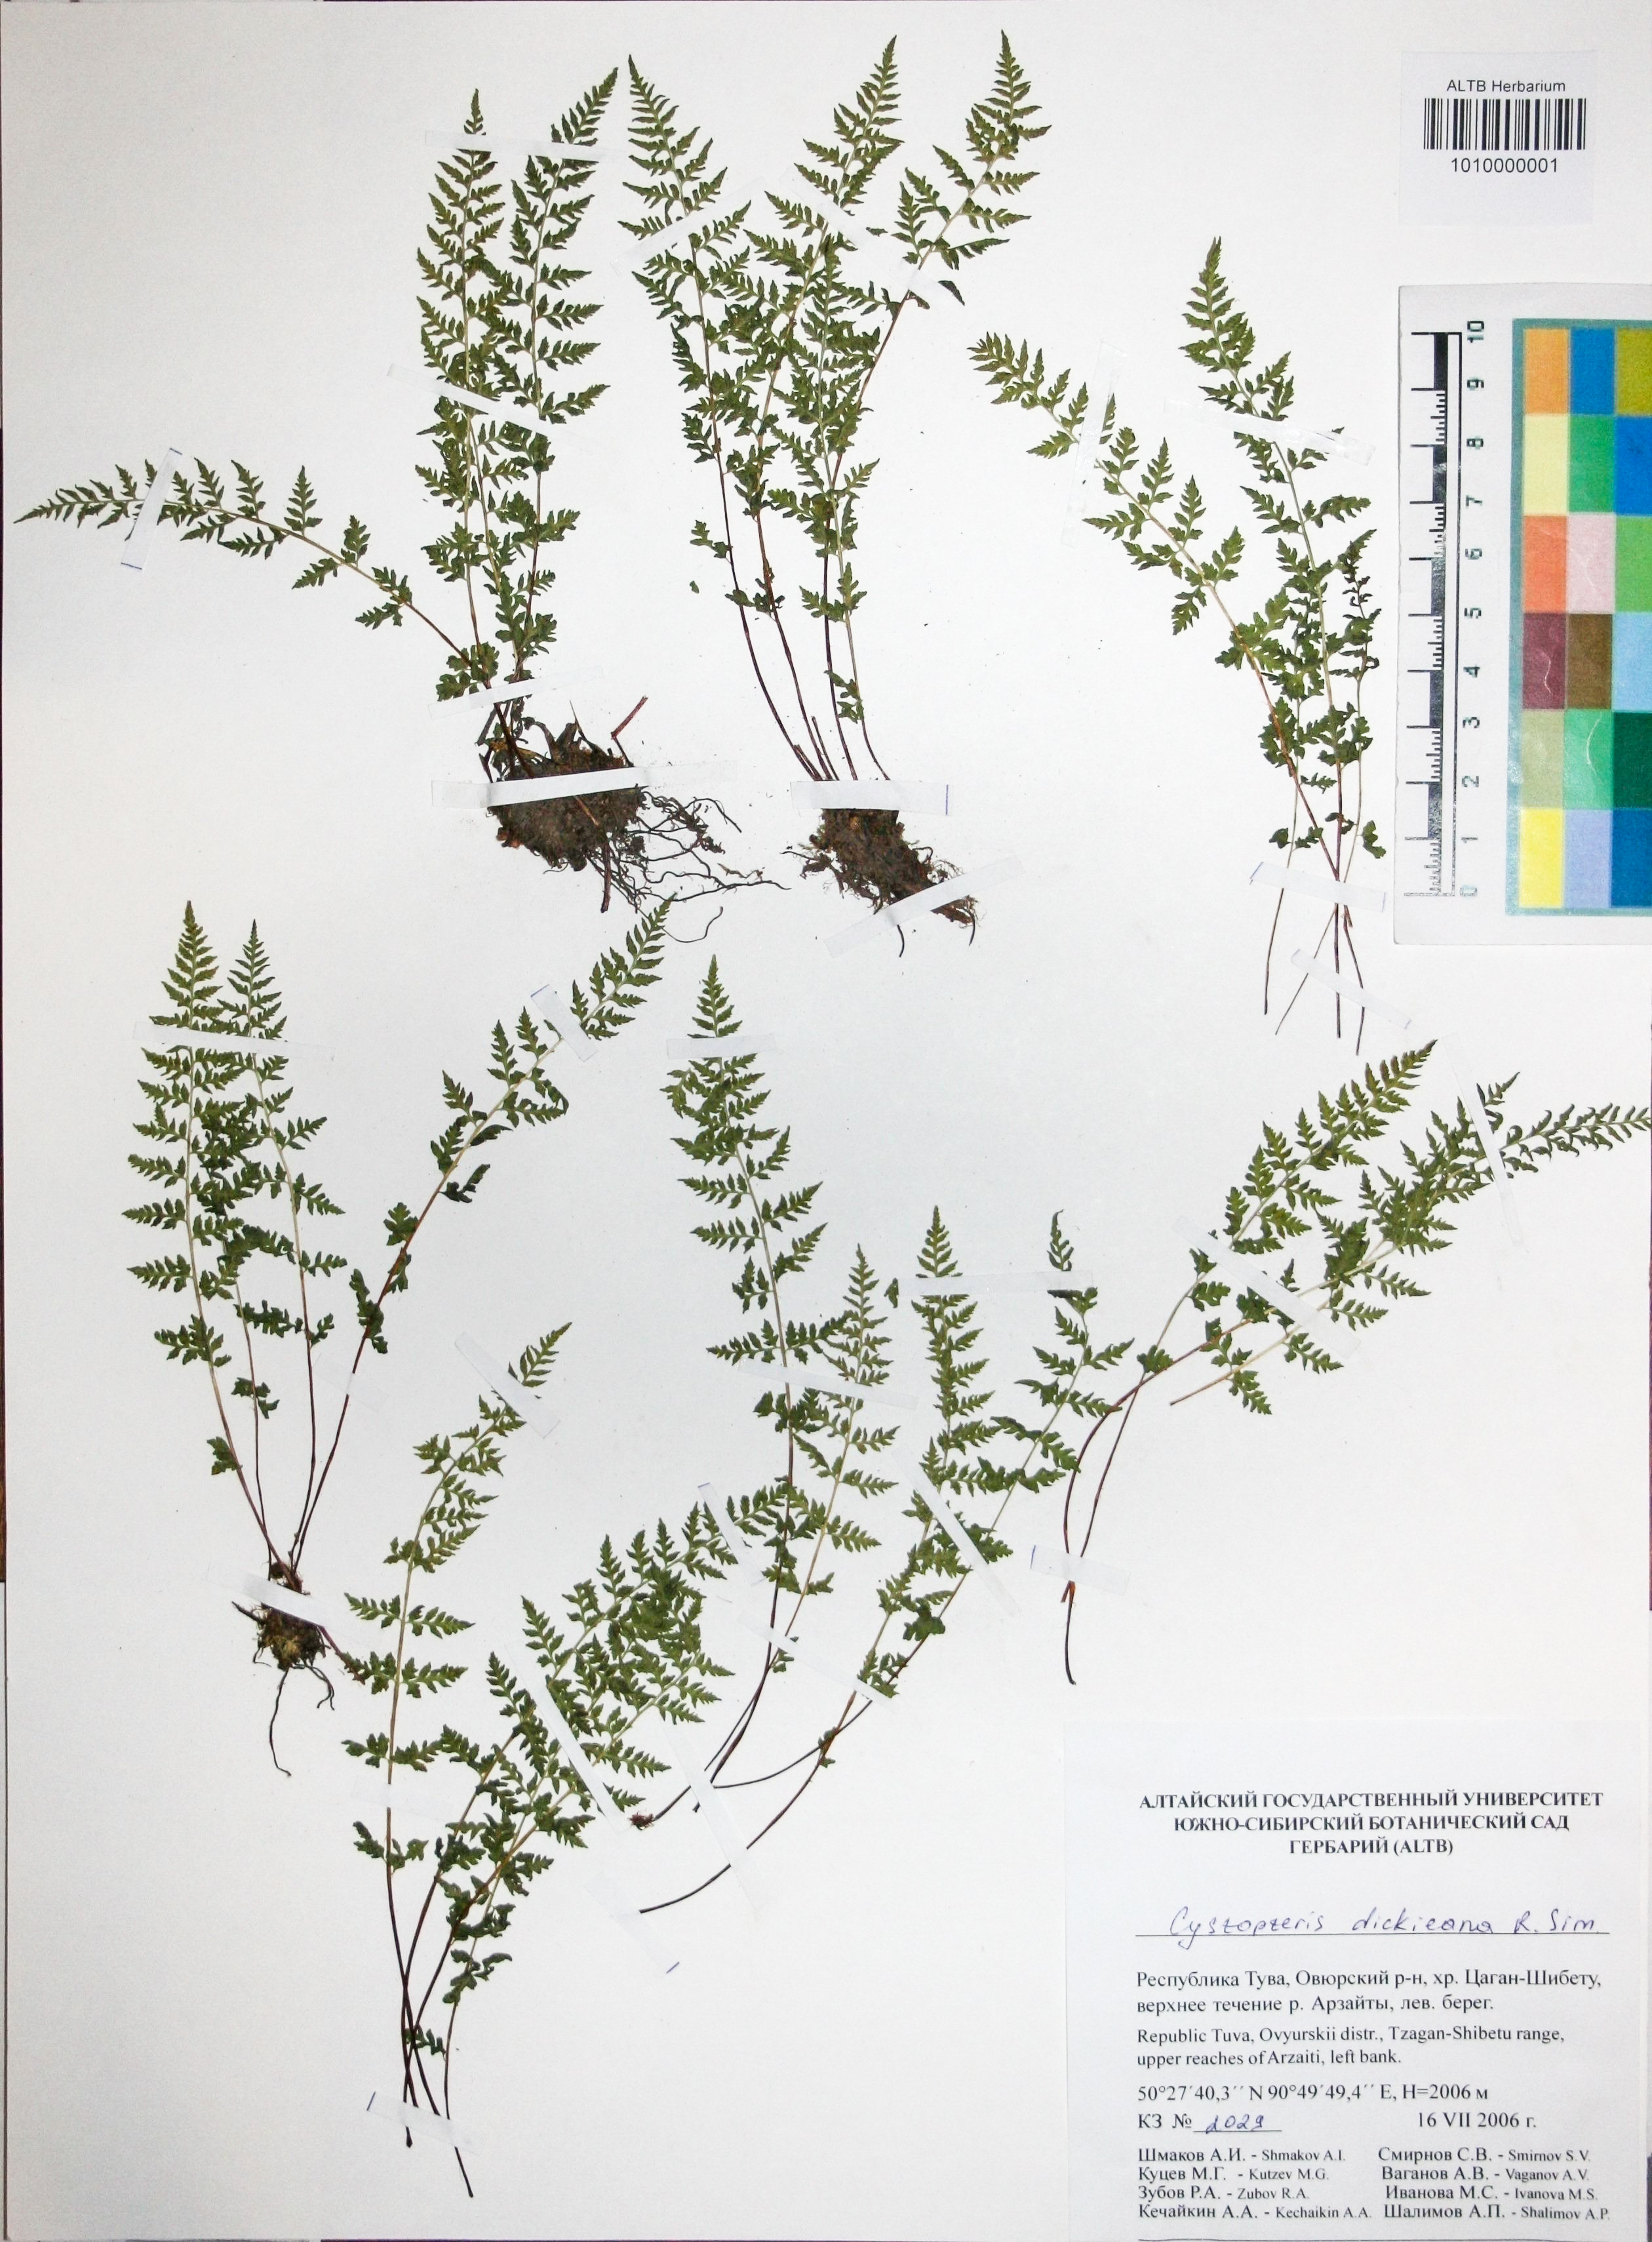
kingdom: Plantae
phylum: Tracheophyta
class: Polypodiopsida
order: Polypodiales
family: Cystopteridaceae
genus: Cystopteris
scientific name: Cystopteris dickieana
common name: Dickie's bladder-fern
